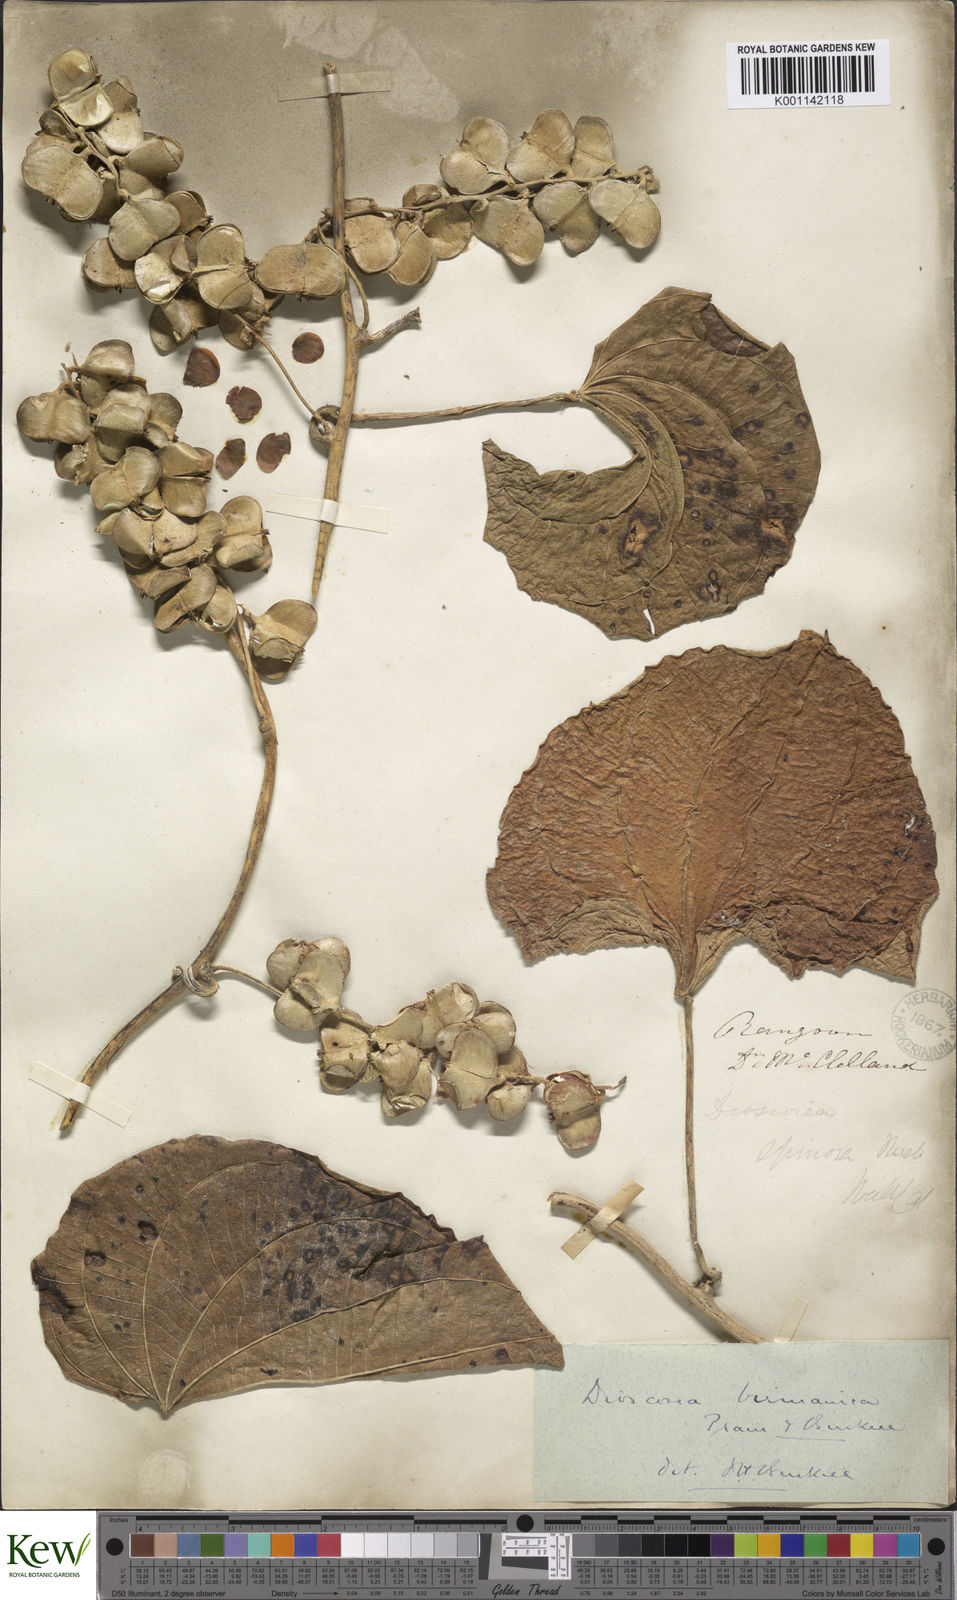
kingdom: Plantae
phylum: Tracheophyta
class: Liliopsida
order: Dioscoreales
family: Dioscoreaceae
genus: Dioscorea
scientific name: Dioscorea birmanica
